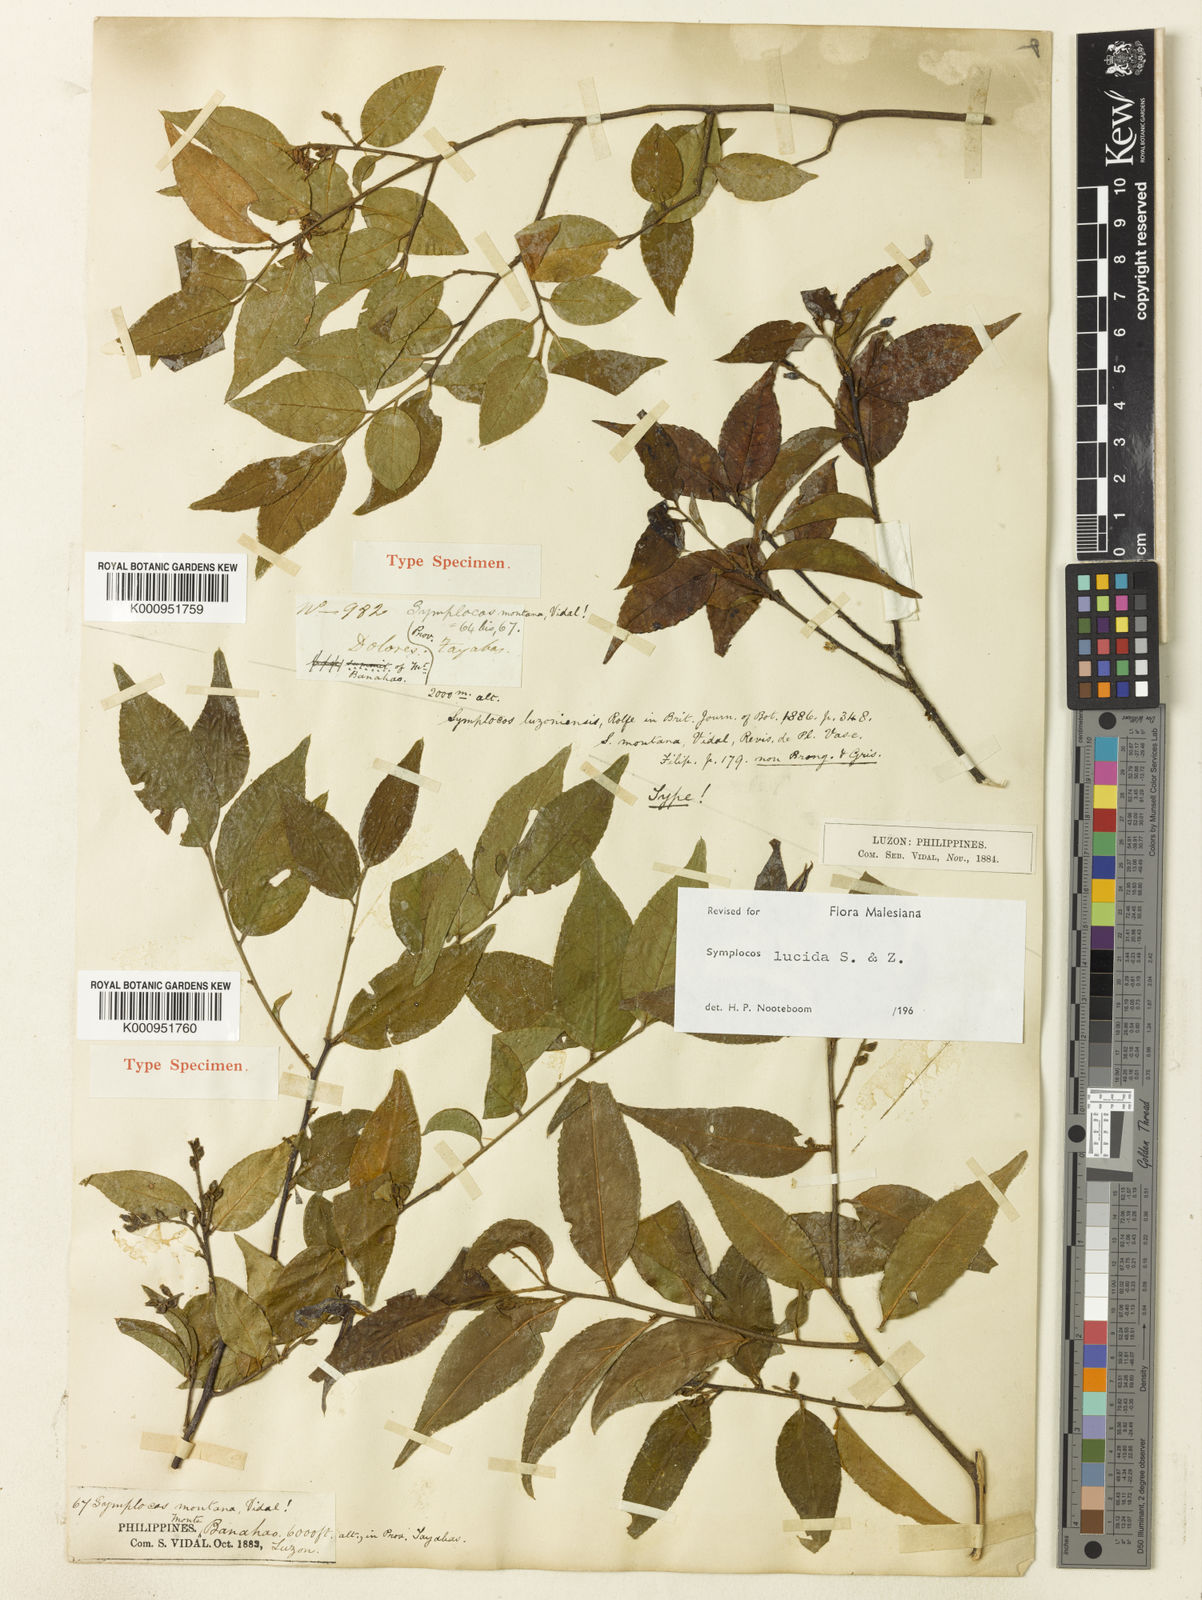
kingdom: Plantae
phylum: Tracheophyta
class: Magnoliopsida
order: Ericales
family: Symplocaceae
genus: Symplocos
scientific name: Symplocos lancifolia
